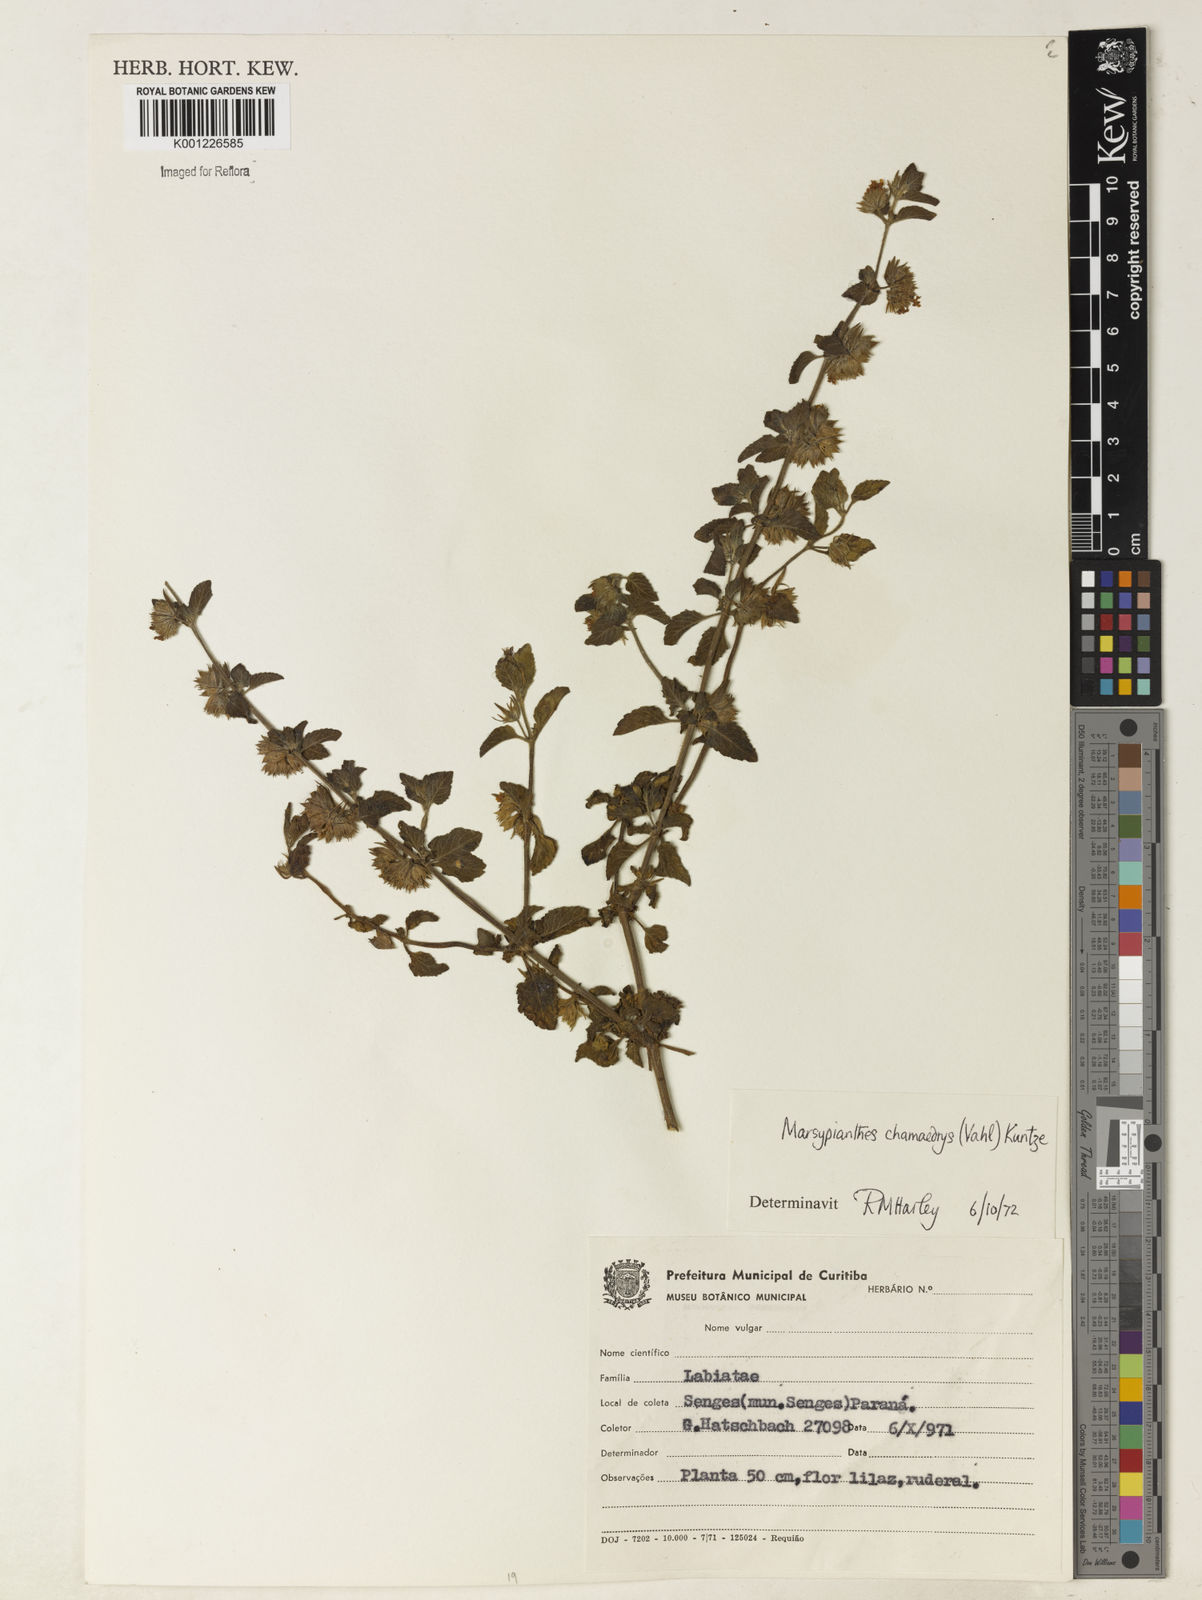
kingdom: Plantae
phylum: Tracheophyta
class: Magnoliopsida
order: Lamiales
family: Lamiaceae
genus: Marsypianthes
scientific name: Marsypianthes chamaedrys
